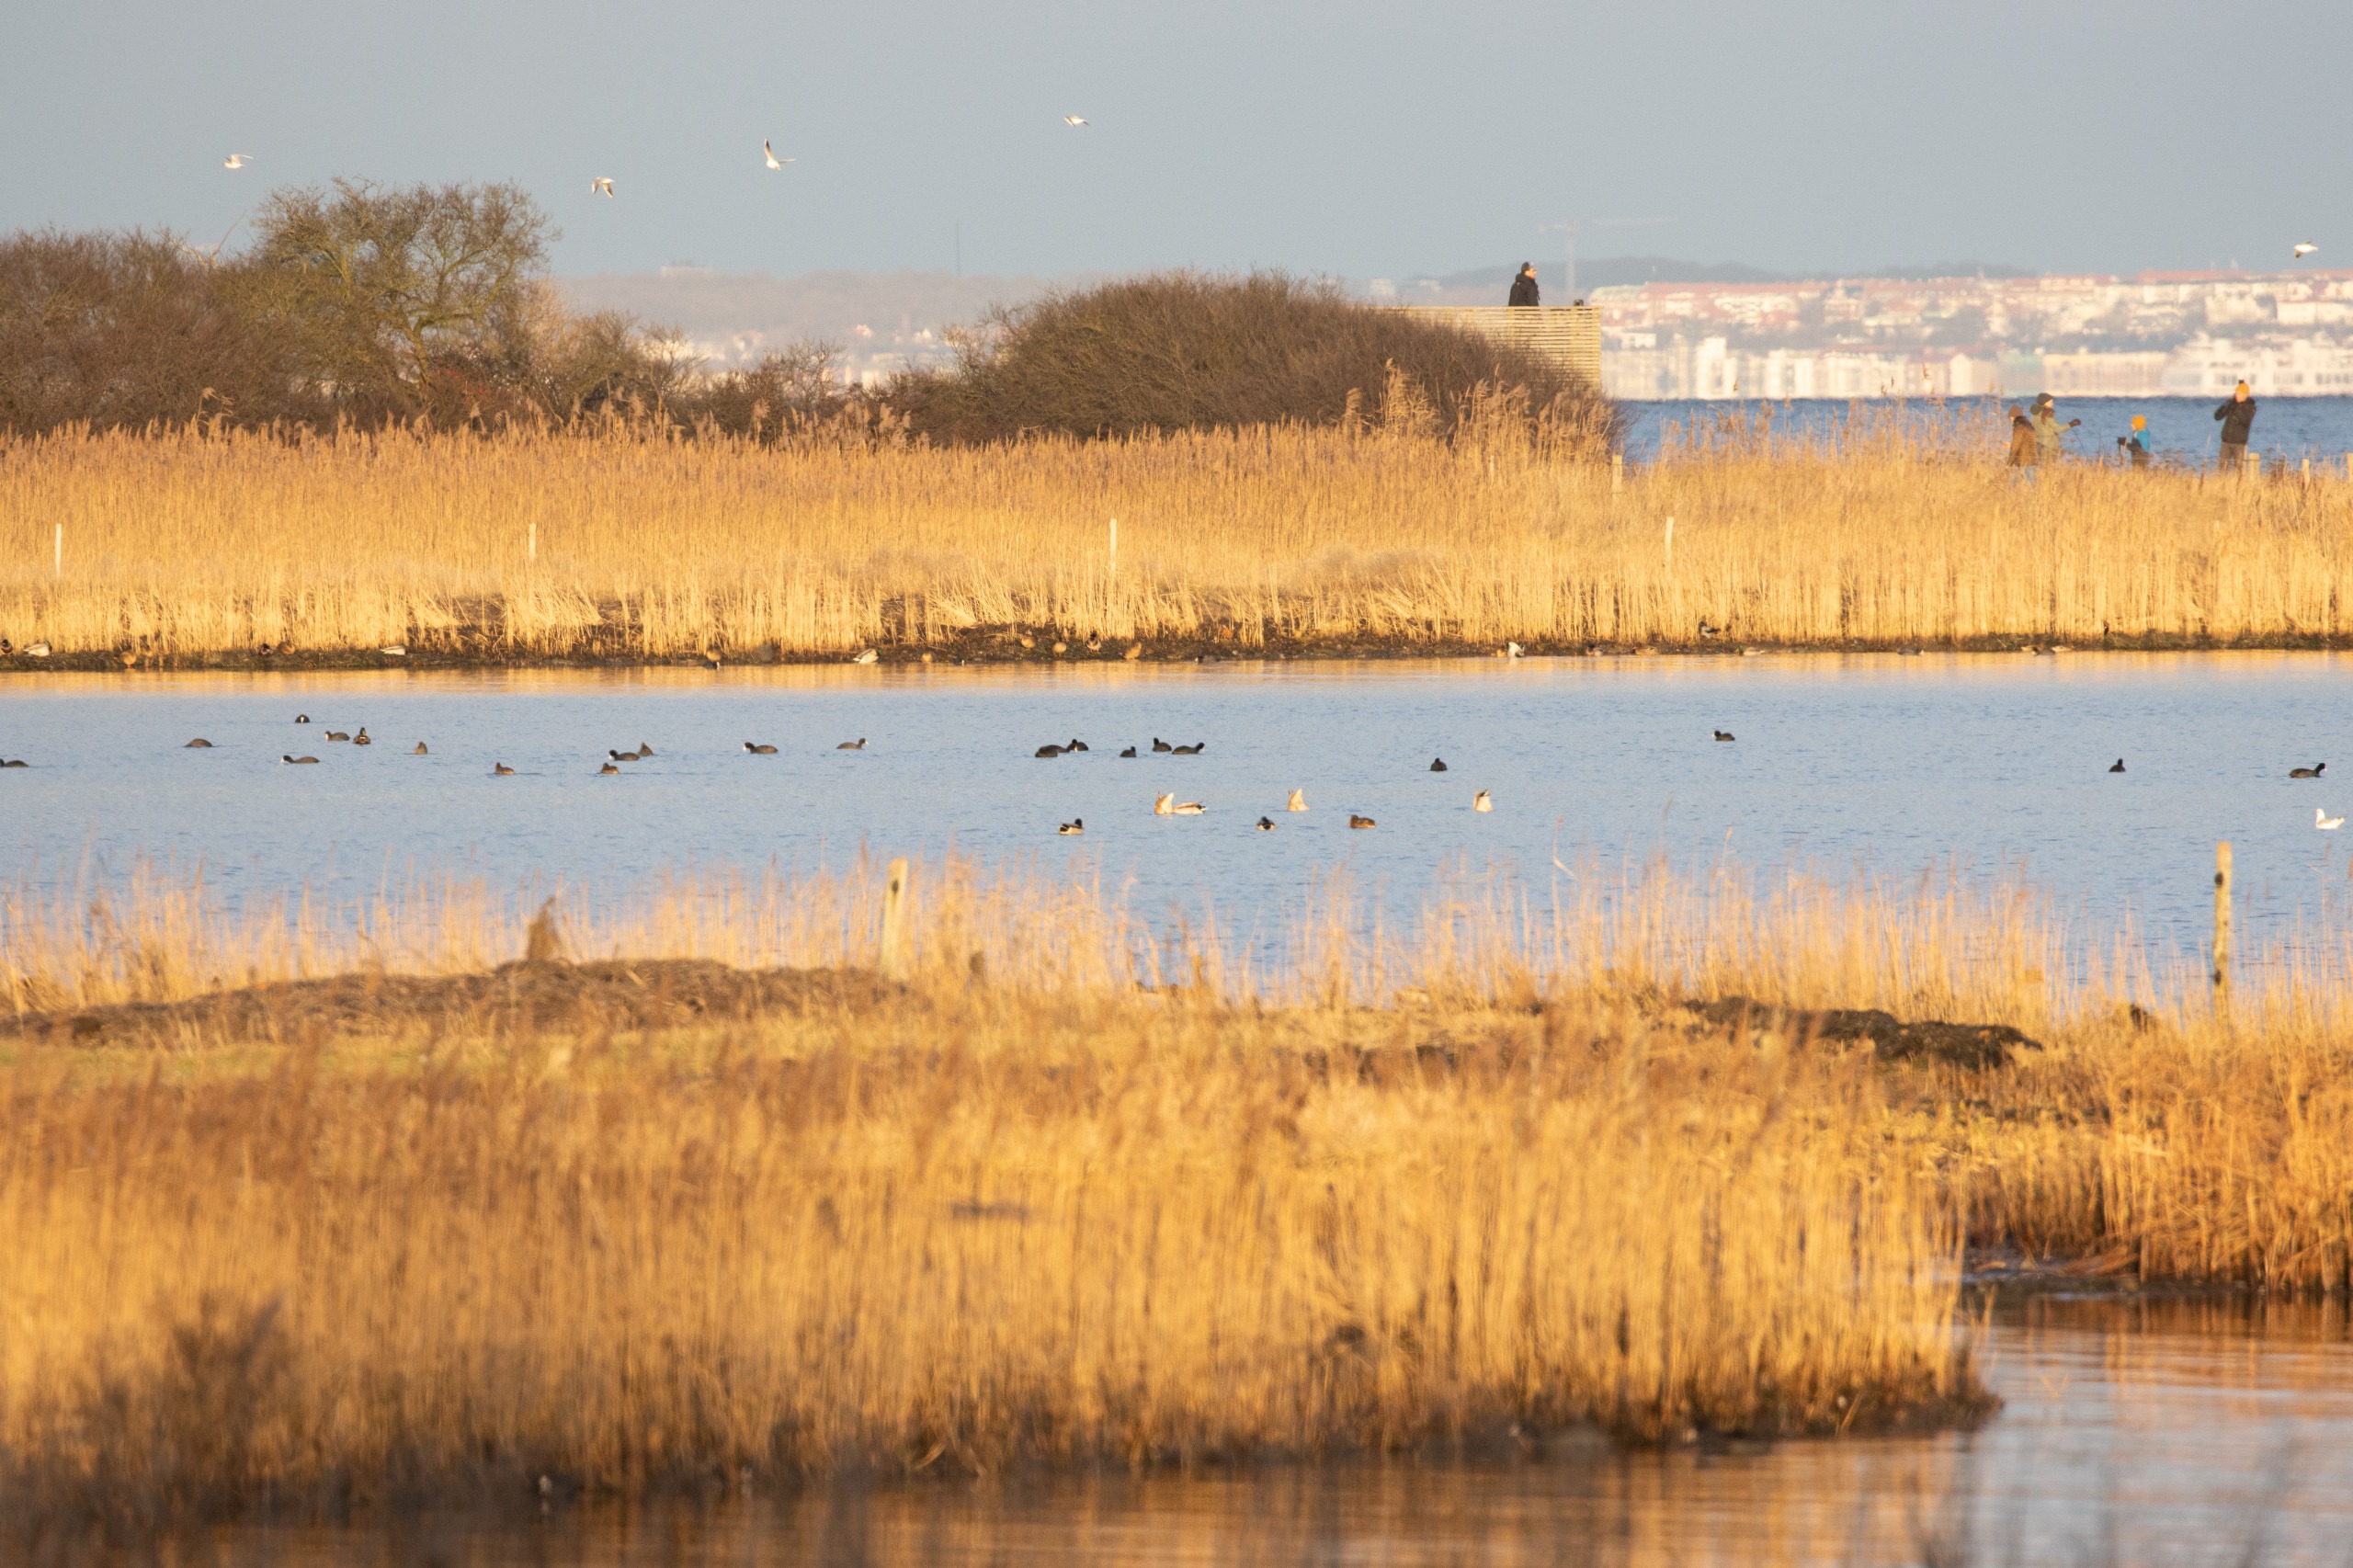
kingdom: Animalia
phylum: Chordata
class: Aves
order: Gruiformes
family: Rallidae
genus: Fulica
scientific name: Fulica atra
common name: Blishøne
